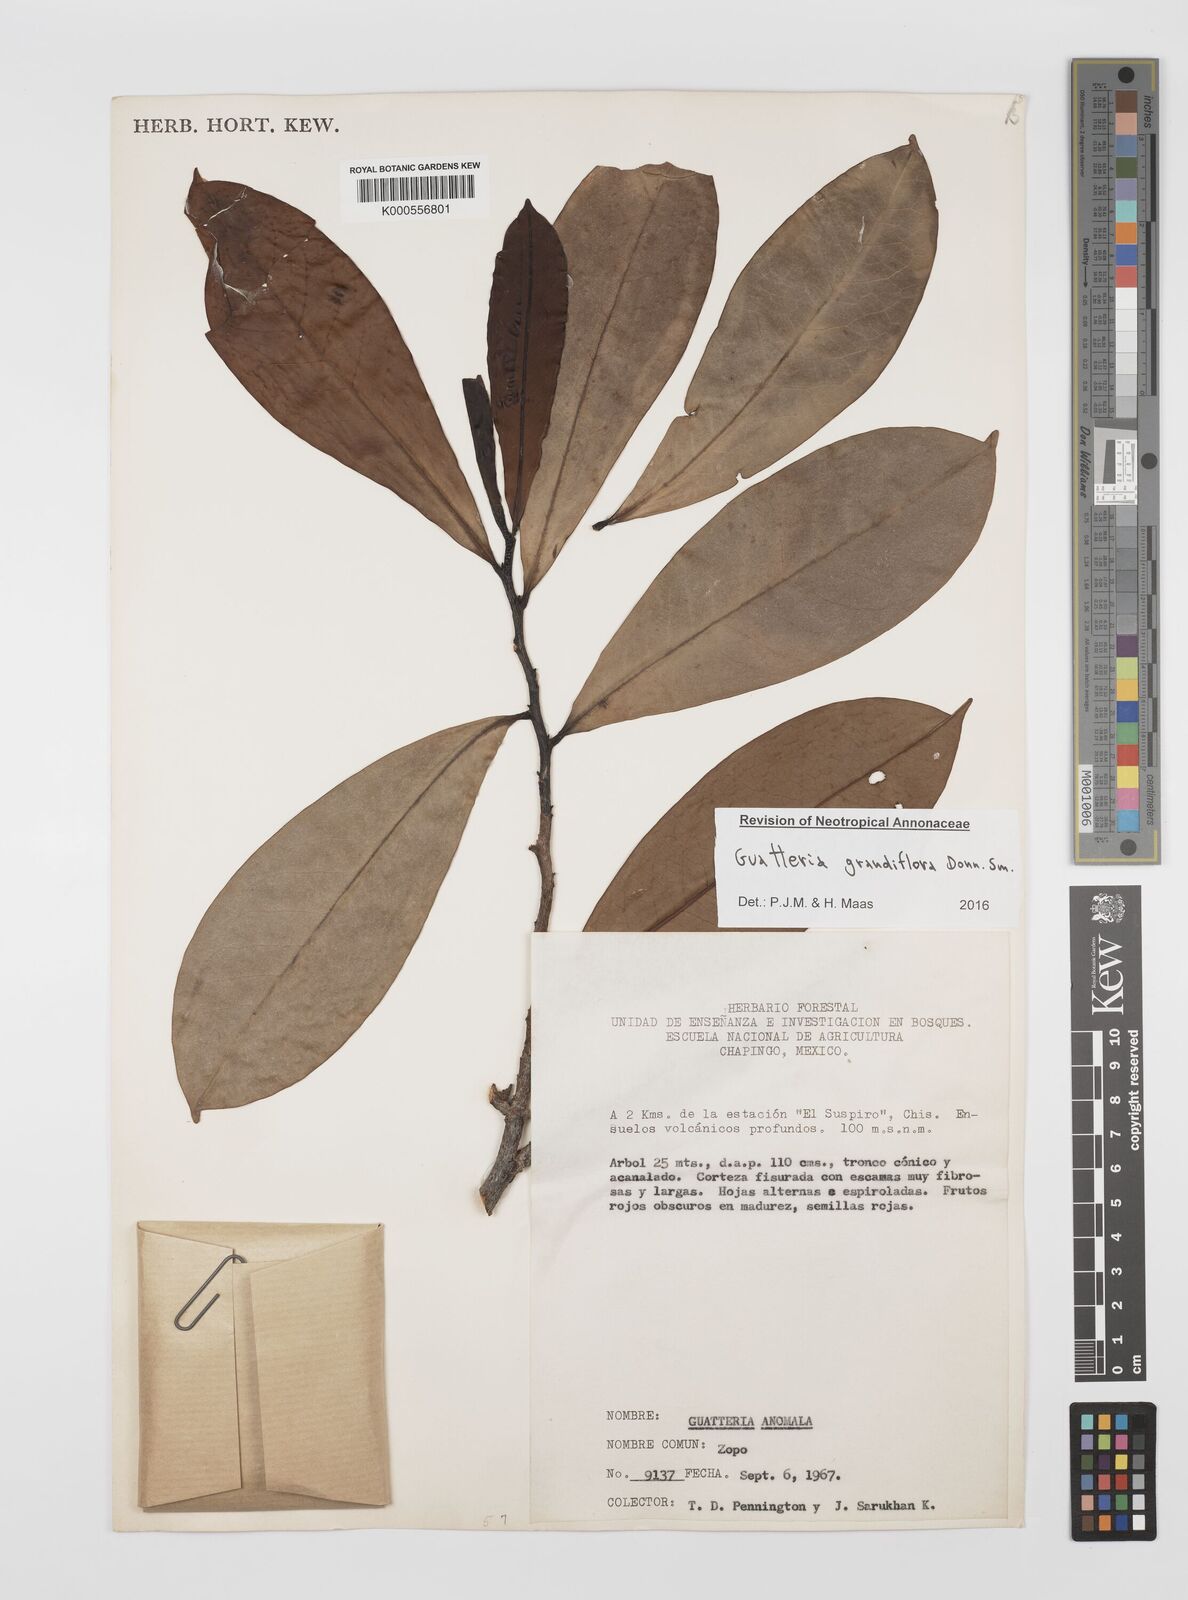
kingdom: Plantae
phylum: Tracheophyta
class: Magnoliopsida
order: Magnoliales
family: Annonaceae
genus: Guatteria
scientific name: Guatteria grandiflora
